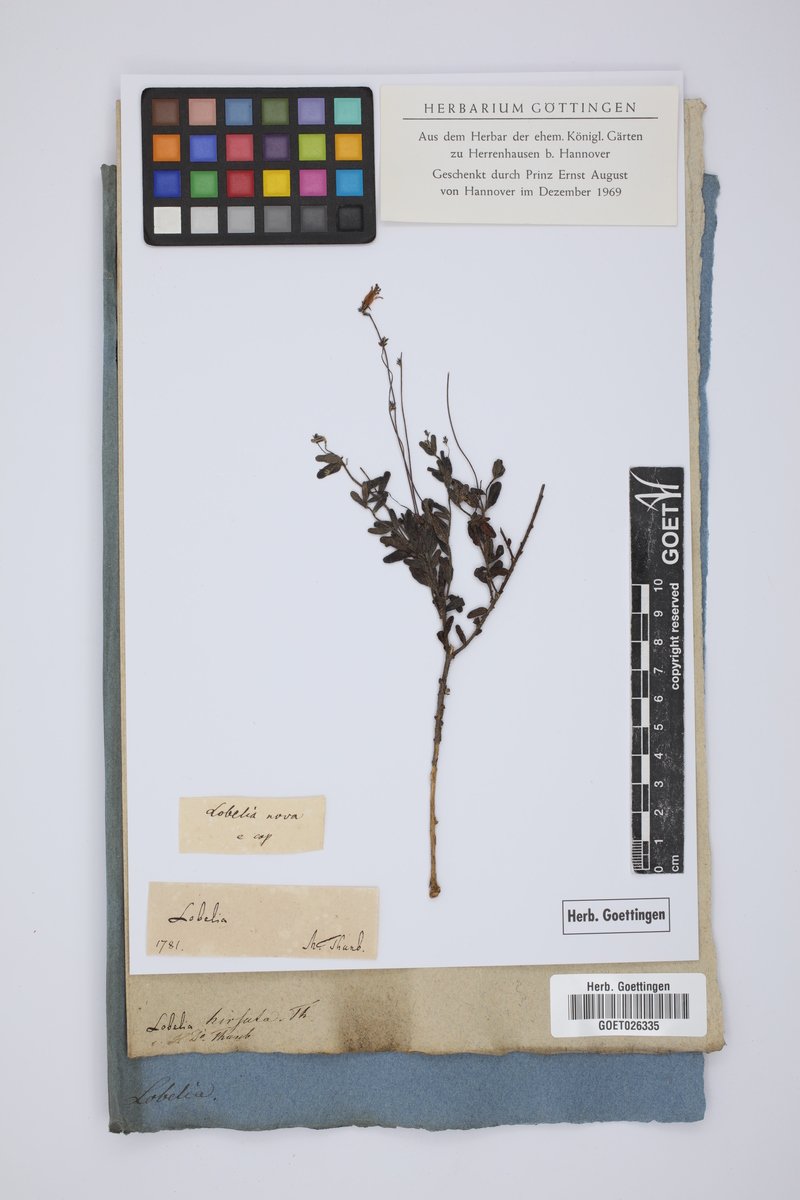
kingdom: Plantae
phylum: Tracheophyta
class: Magnoliopsida
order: Malvales
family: Thymelaeaceae
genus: Gnidia
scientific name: Gnidia hirsuta
